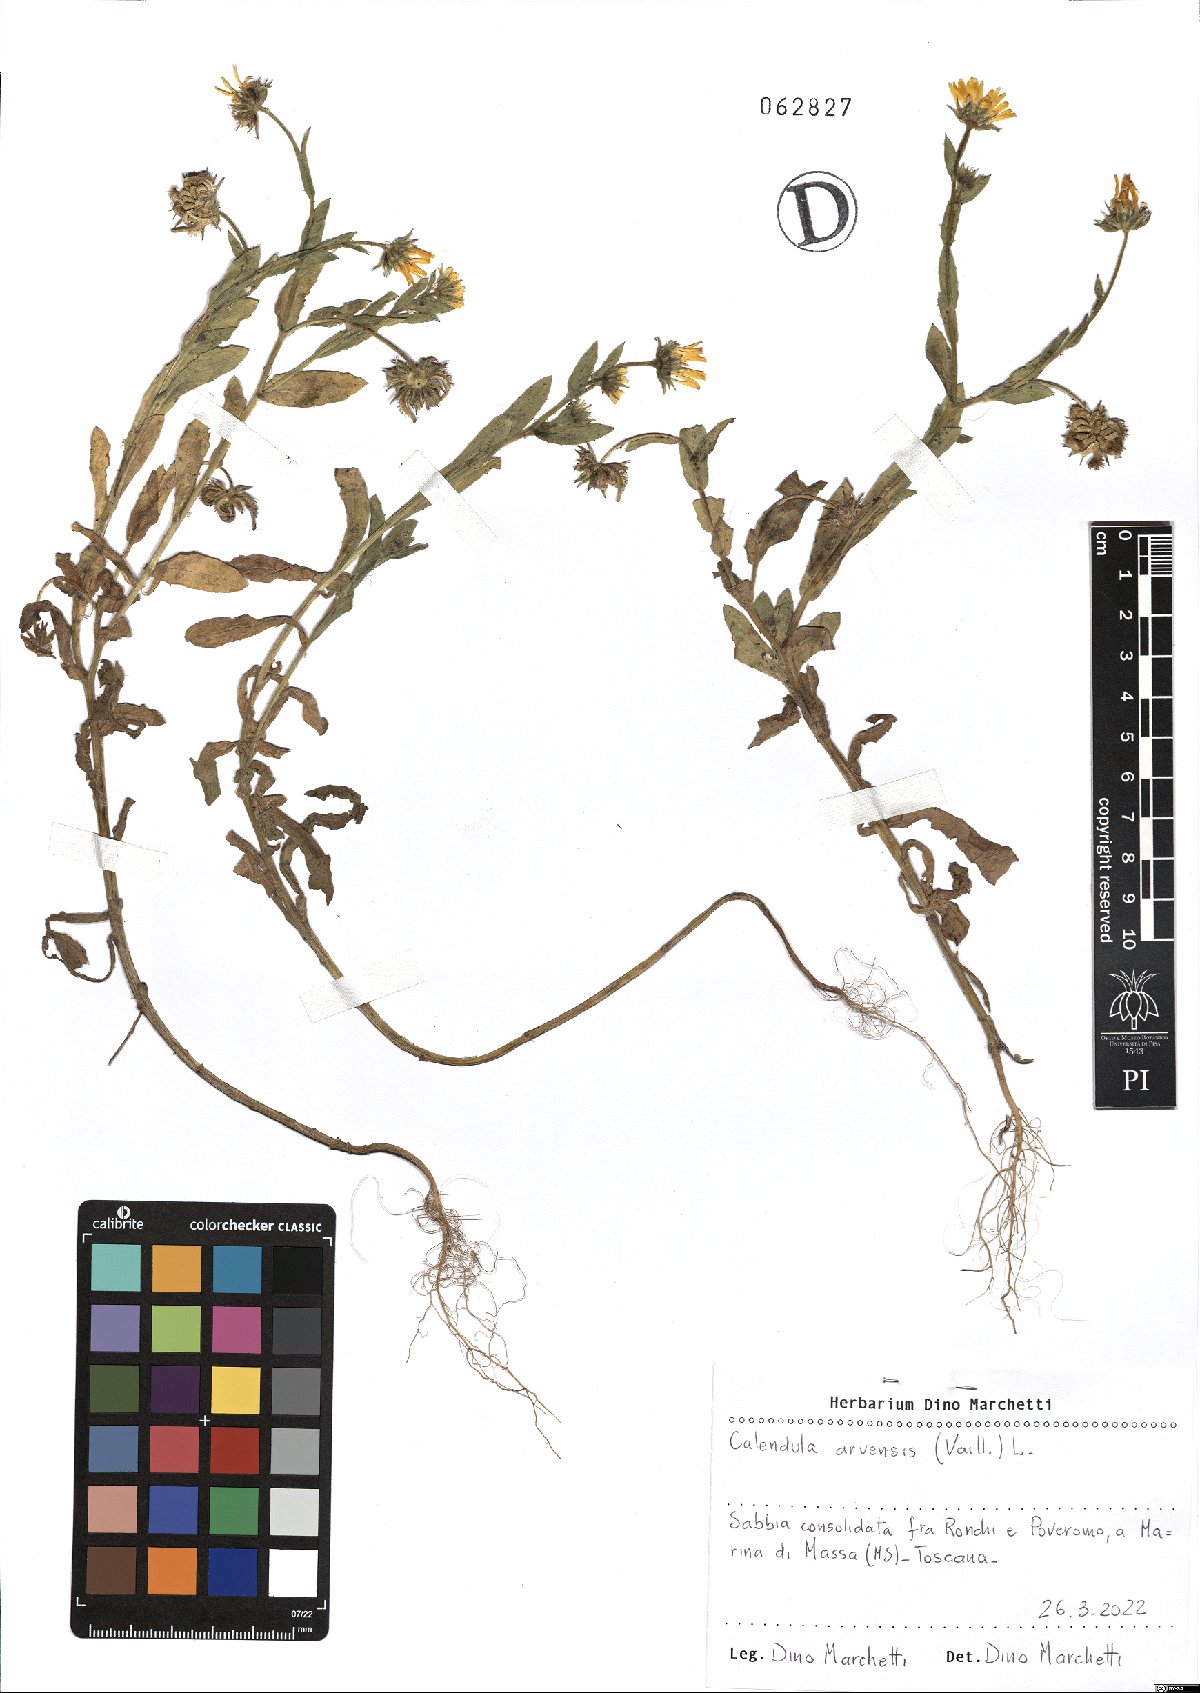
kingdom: Plantae
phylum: Tracheophyta
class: Magnoliopsida
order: Asterales
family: Asteraceae
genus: Calendula
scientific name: Calendula arvensis
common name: Field marigold
